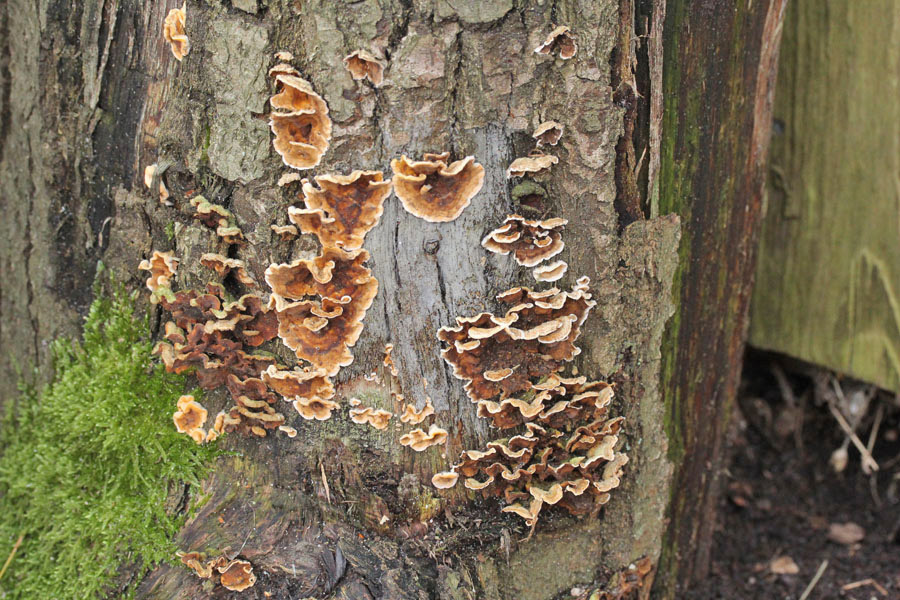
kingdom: Fungi
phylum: Basidiomycota
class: Agaricomycetes
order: Russulales
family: Stereaceae
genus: Stereum
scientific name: Stereum hirsutum
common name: håret lædersvamp
